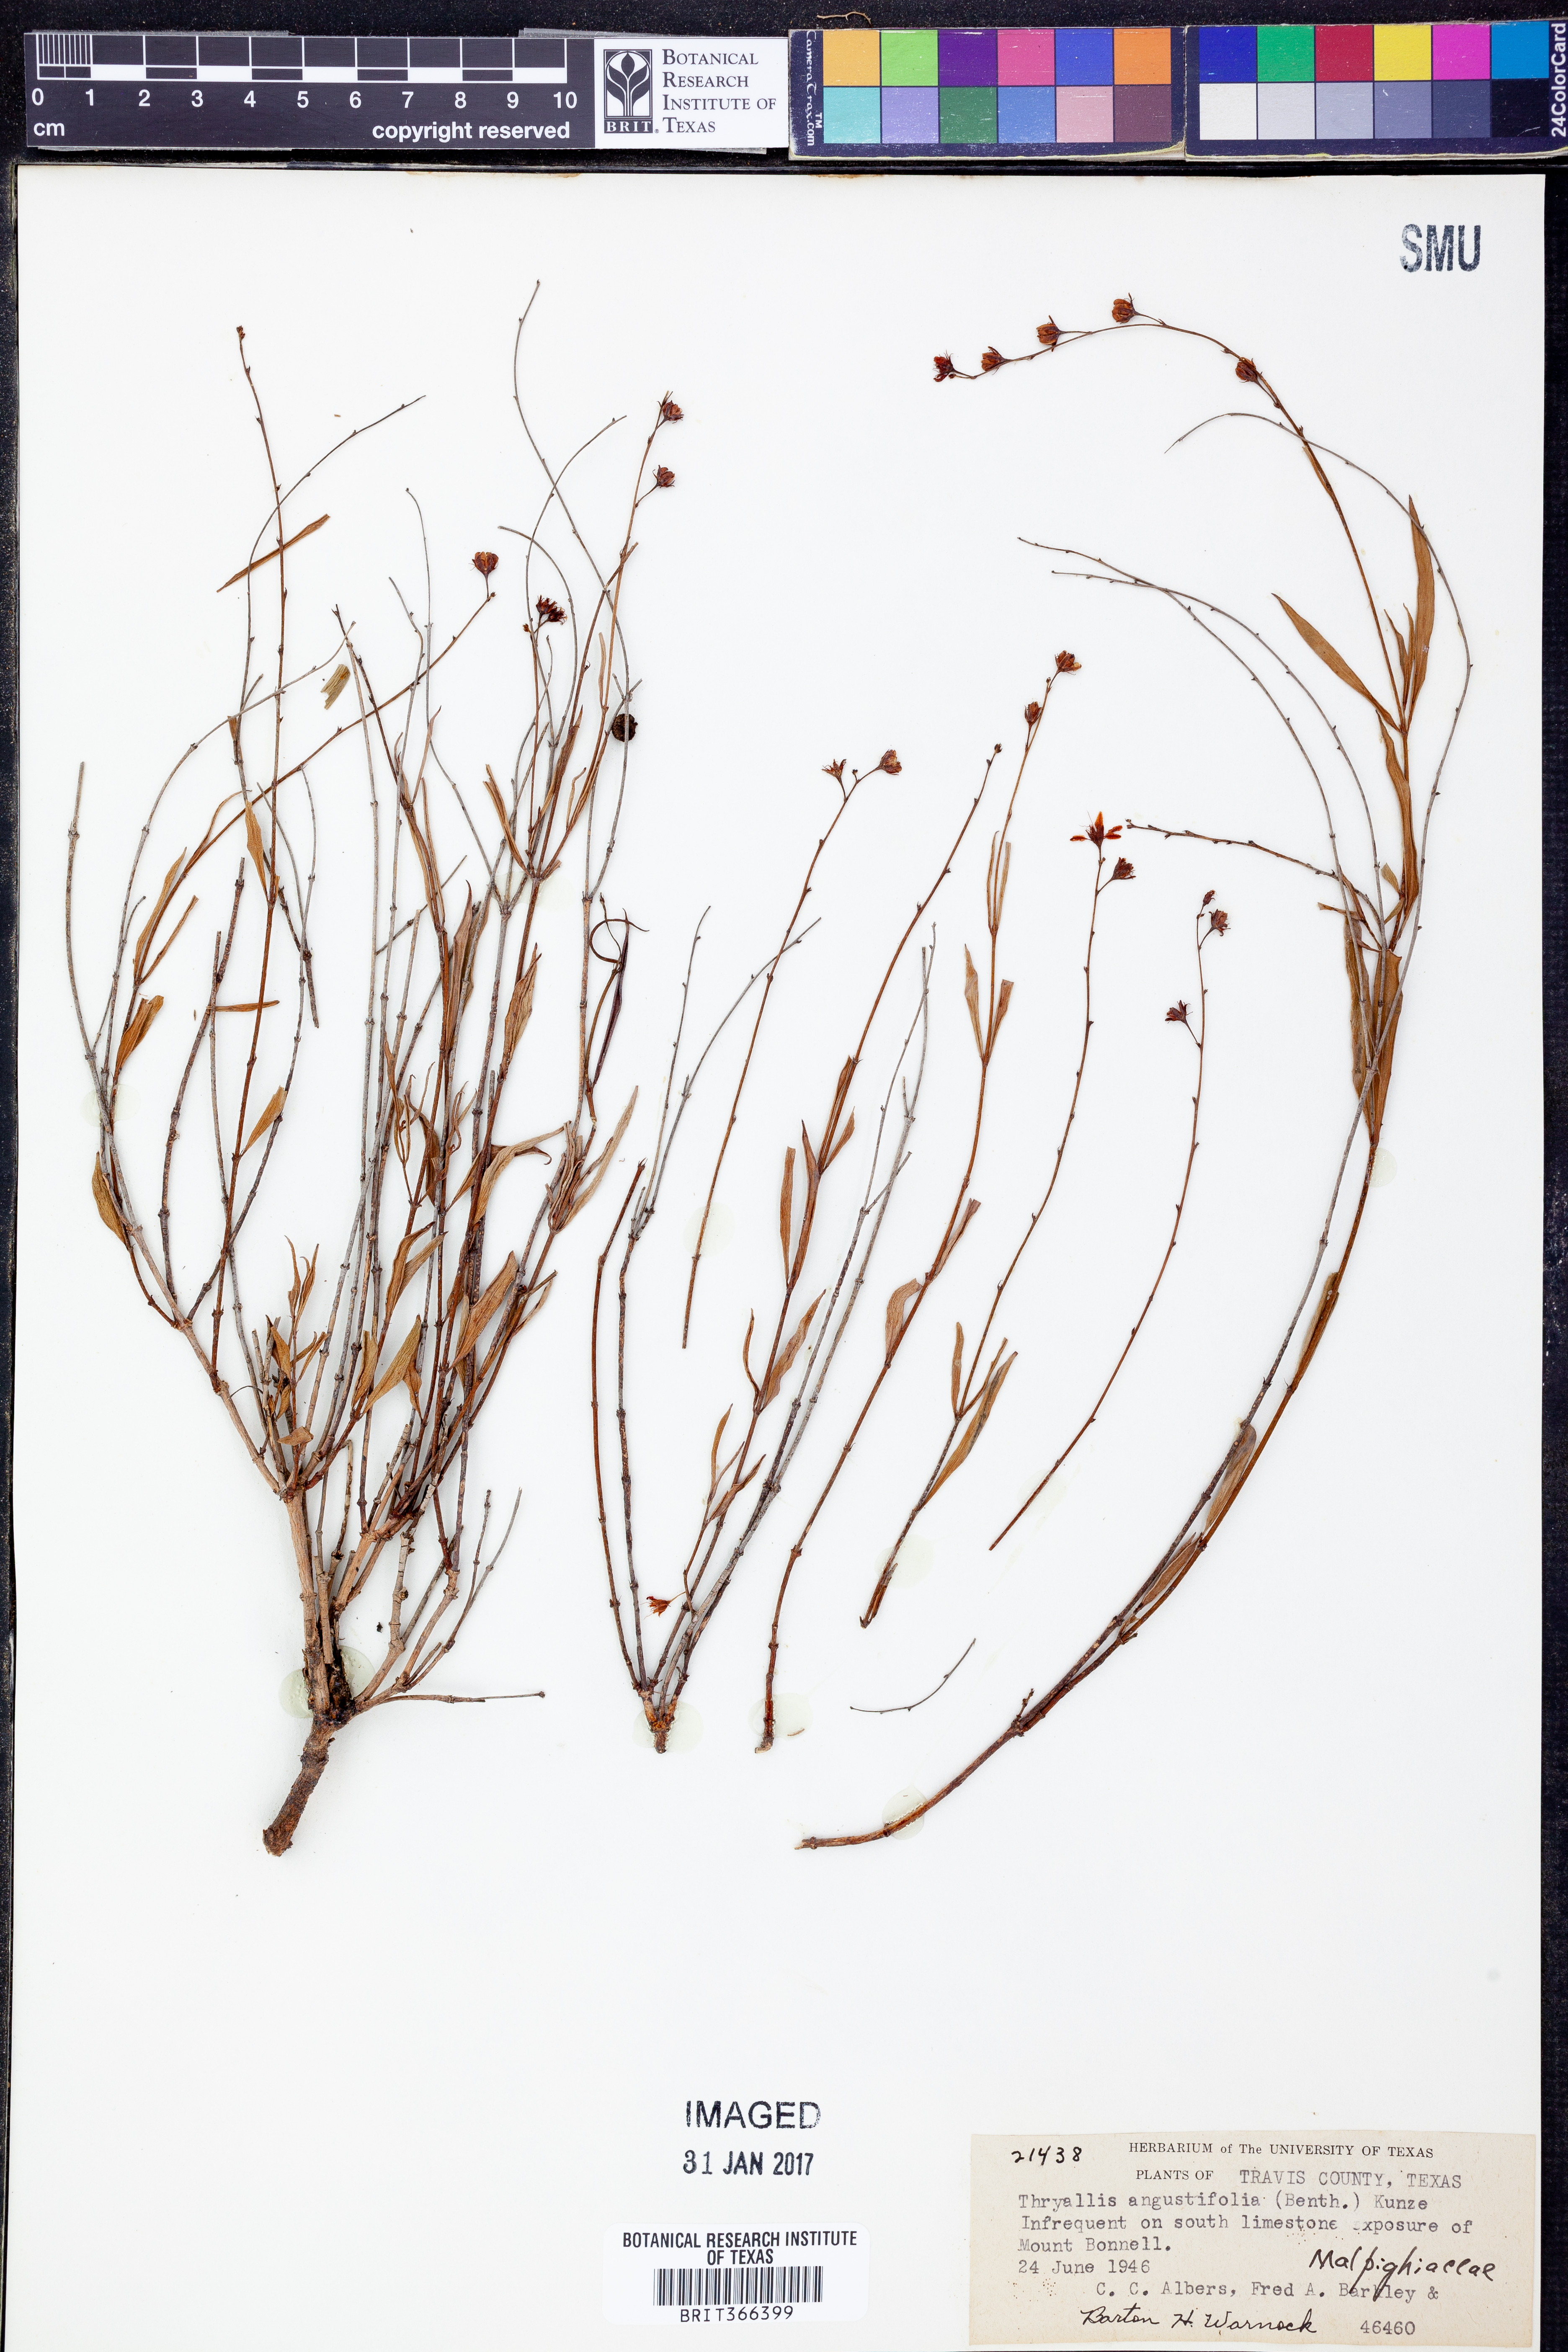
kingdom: Plantae
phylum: Tracheophyta
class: Magnoliopsida
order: Malpighiales
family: Malpighiaceae
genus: Galphimia
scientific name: Galphimia angustifolia
